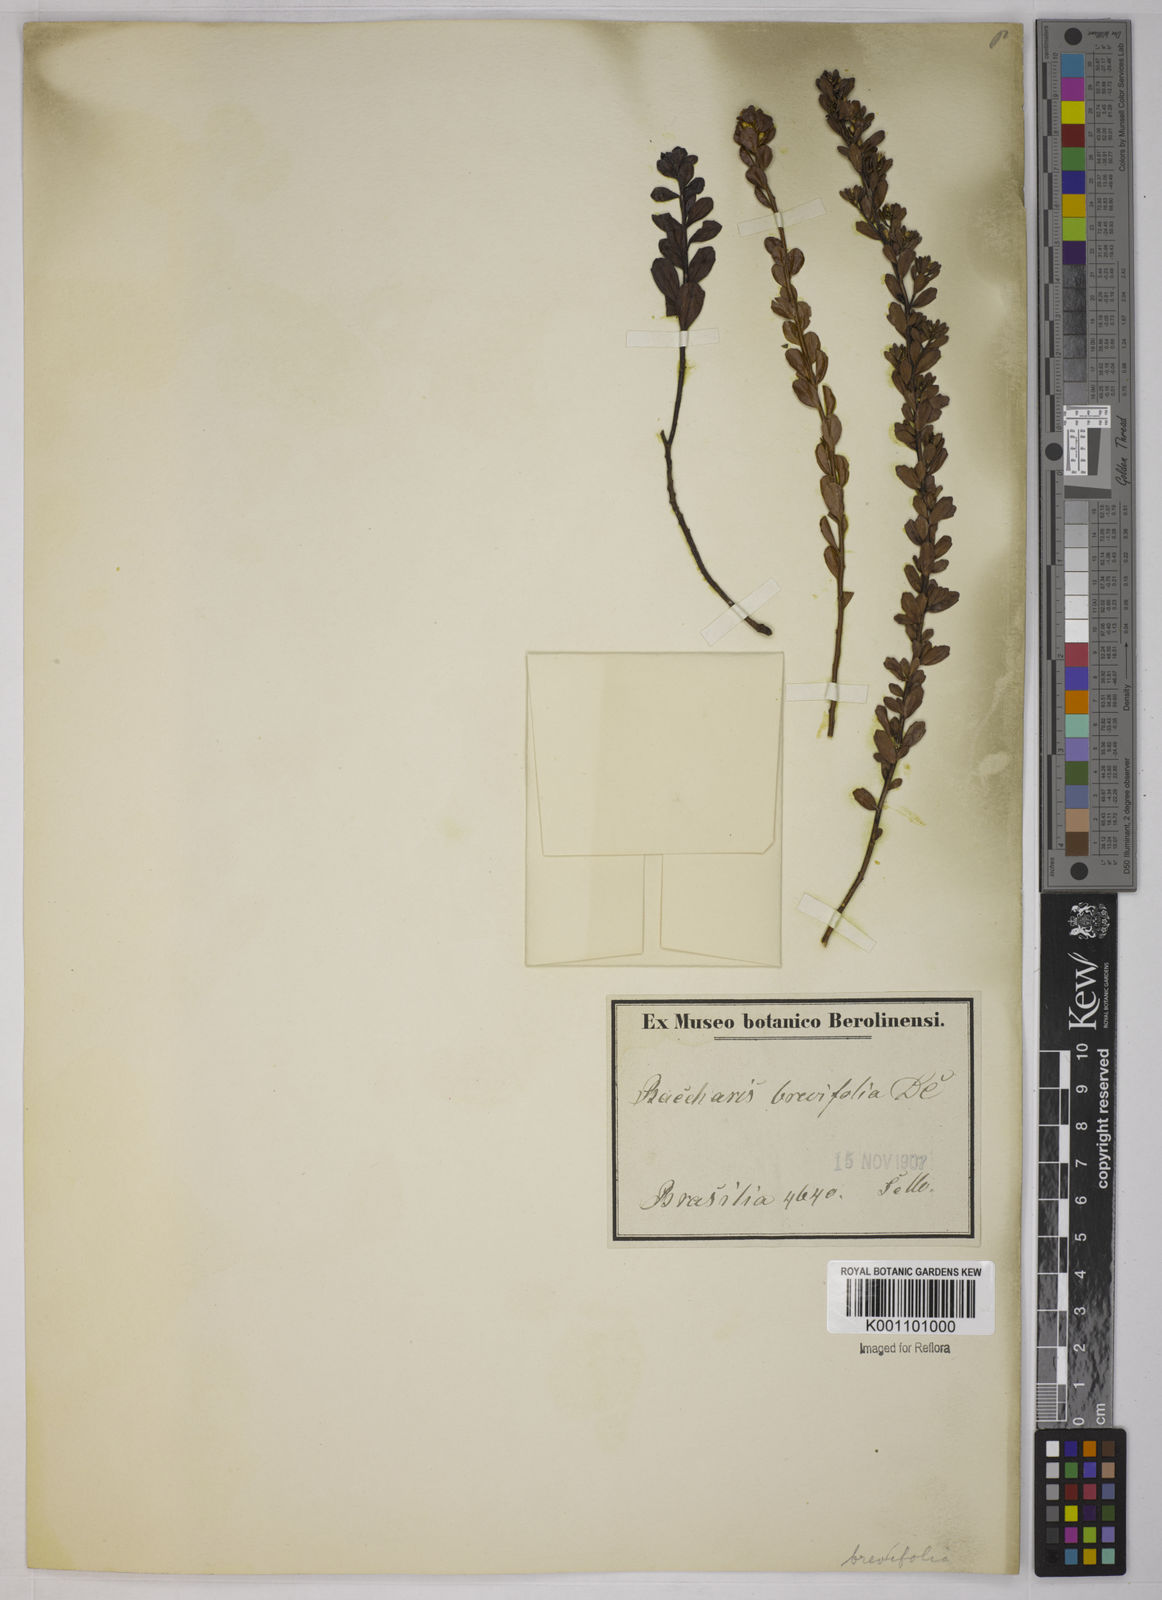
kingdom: Plantae
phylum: Tracheophyta
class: Magnoliopsida
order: Asterales
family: Asteraceae
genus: Baccharis
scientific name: Baccharis brevifolia
